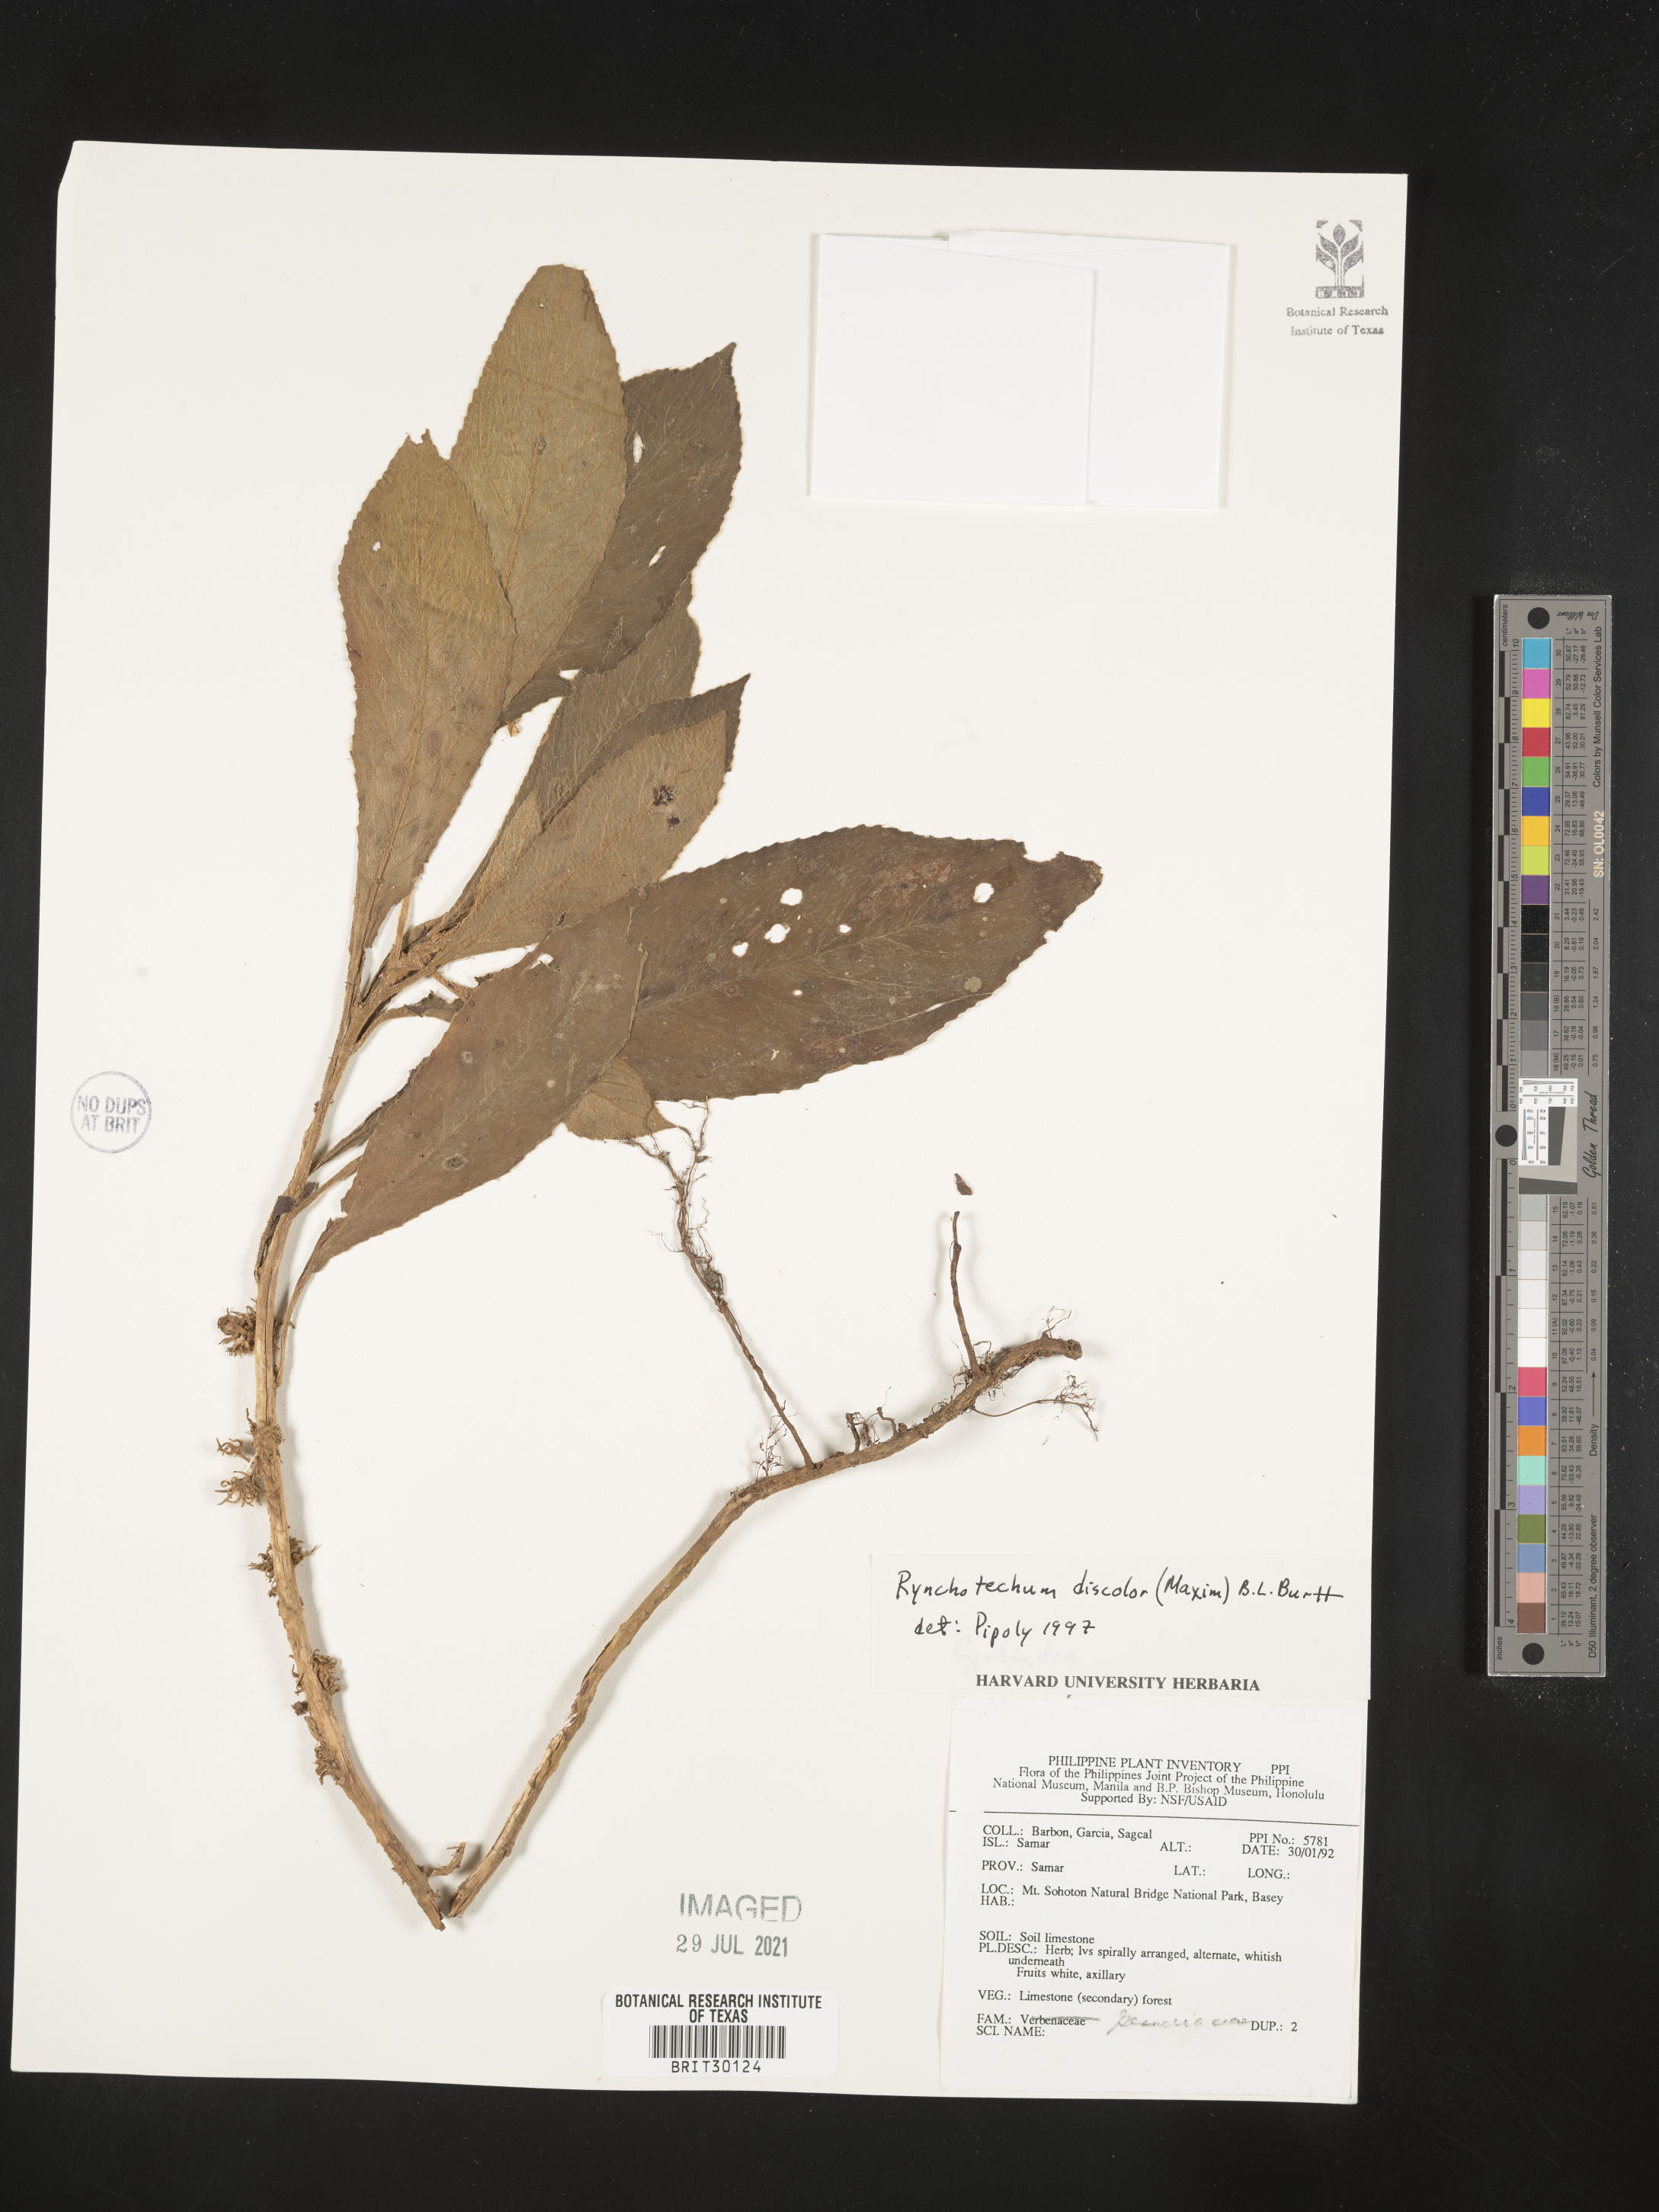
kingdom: Plantae
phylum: Tracheophyta
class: Magnoliopsida
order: Lamiales
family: Gesneriaceae
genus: Rhynchotechum
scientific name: Rhynchotechum discolor
